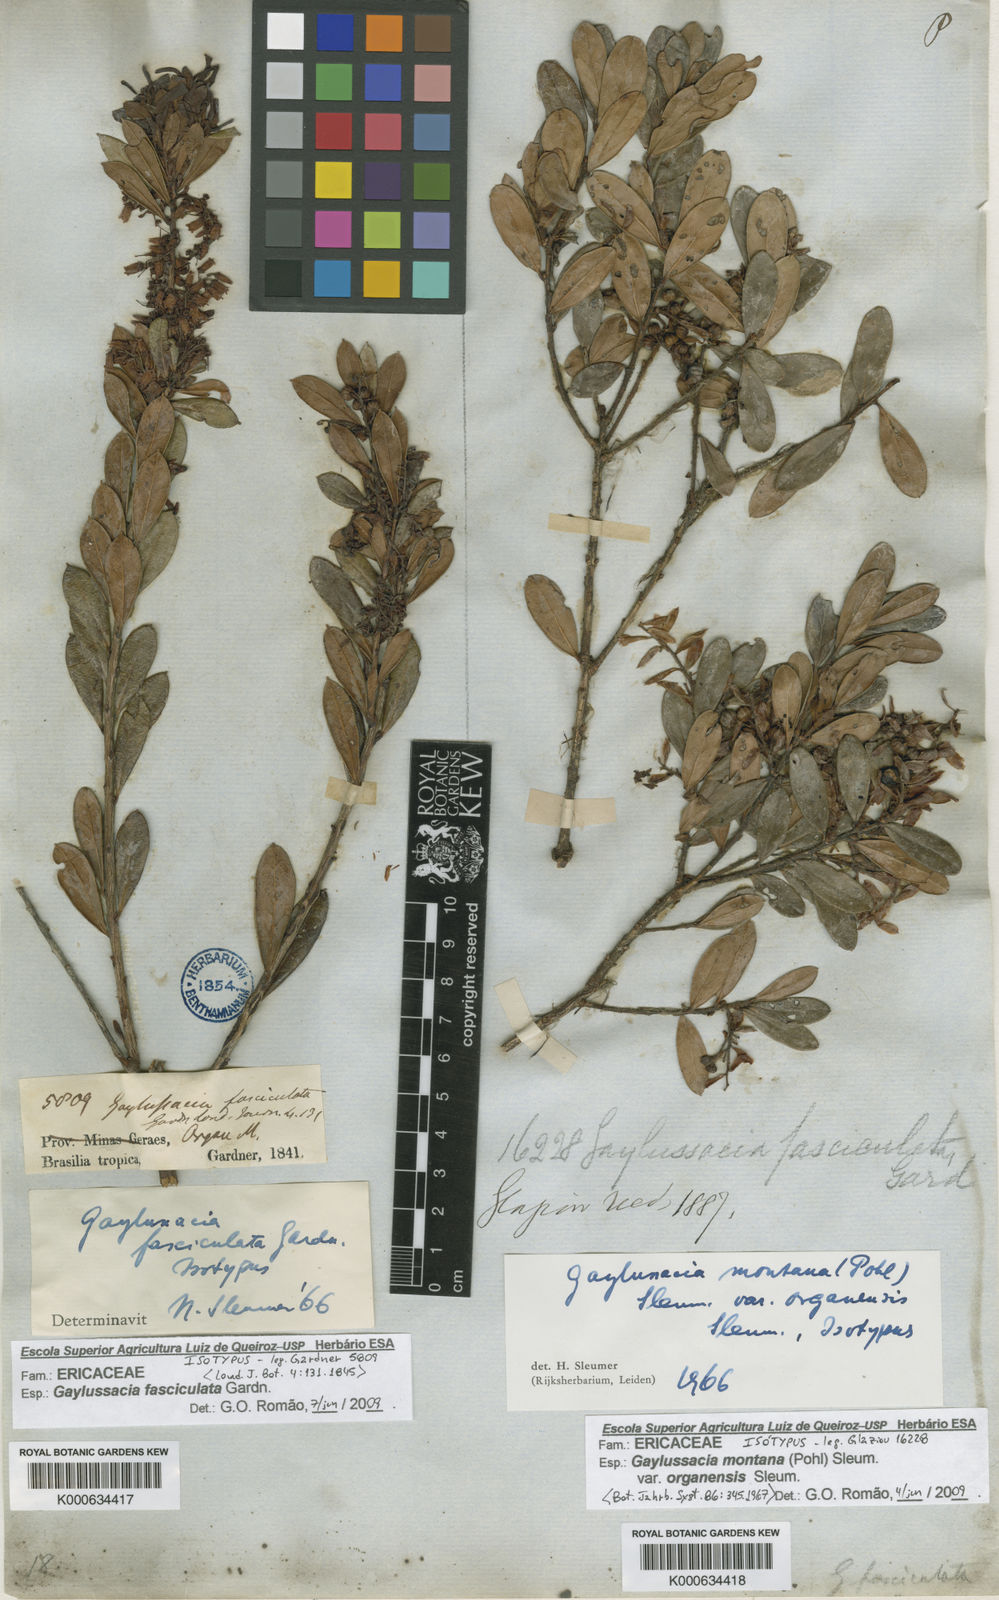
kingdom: Plantae
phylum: Tracheophyta
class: Magnoliopsida
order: Ericales
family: Ericaceae
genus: Gaylussacia
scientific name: Gaylussacia fasciculata
